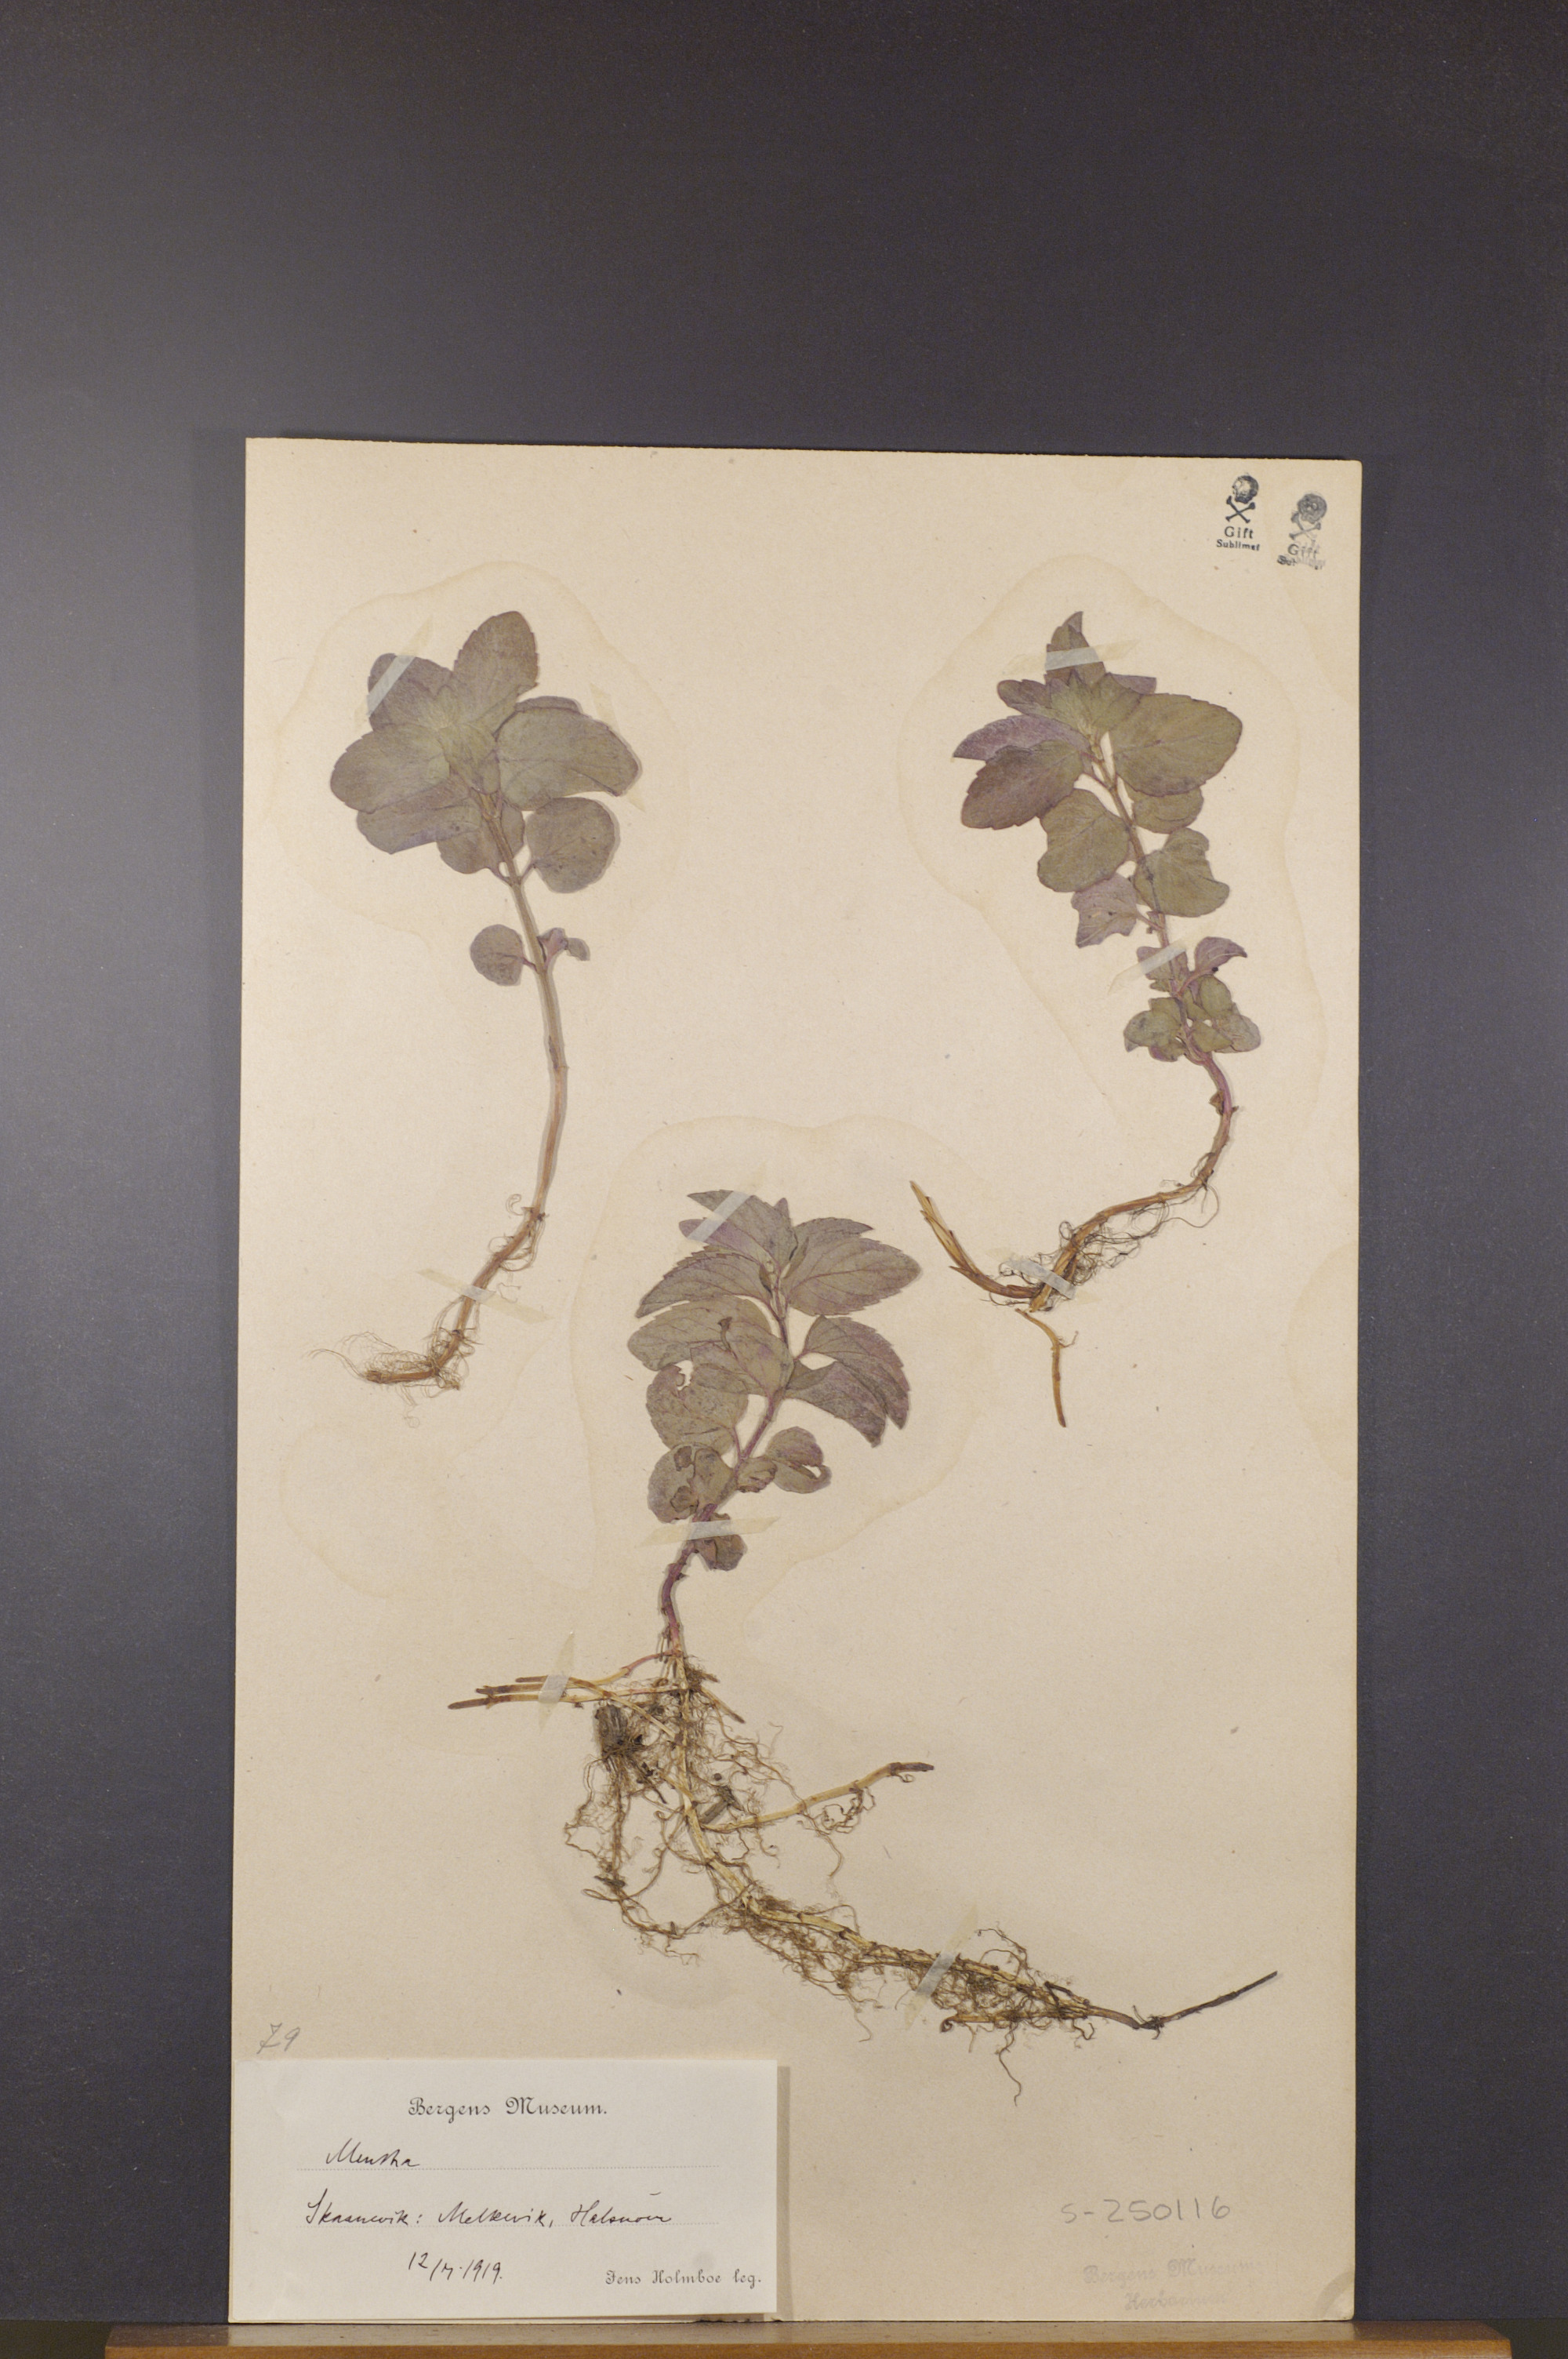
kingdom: Plantae
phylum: Tracheophyta
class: Magnoliopsida
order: Lamiales
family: Lamiaceae
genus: Mentha
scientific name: Mentha
